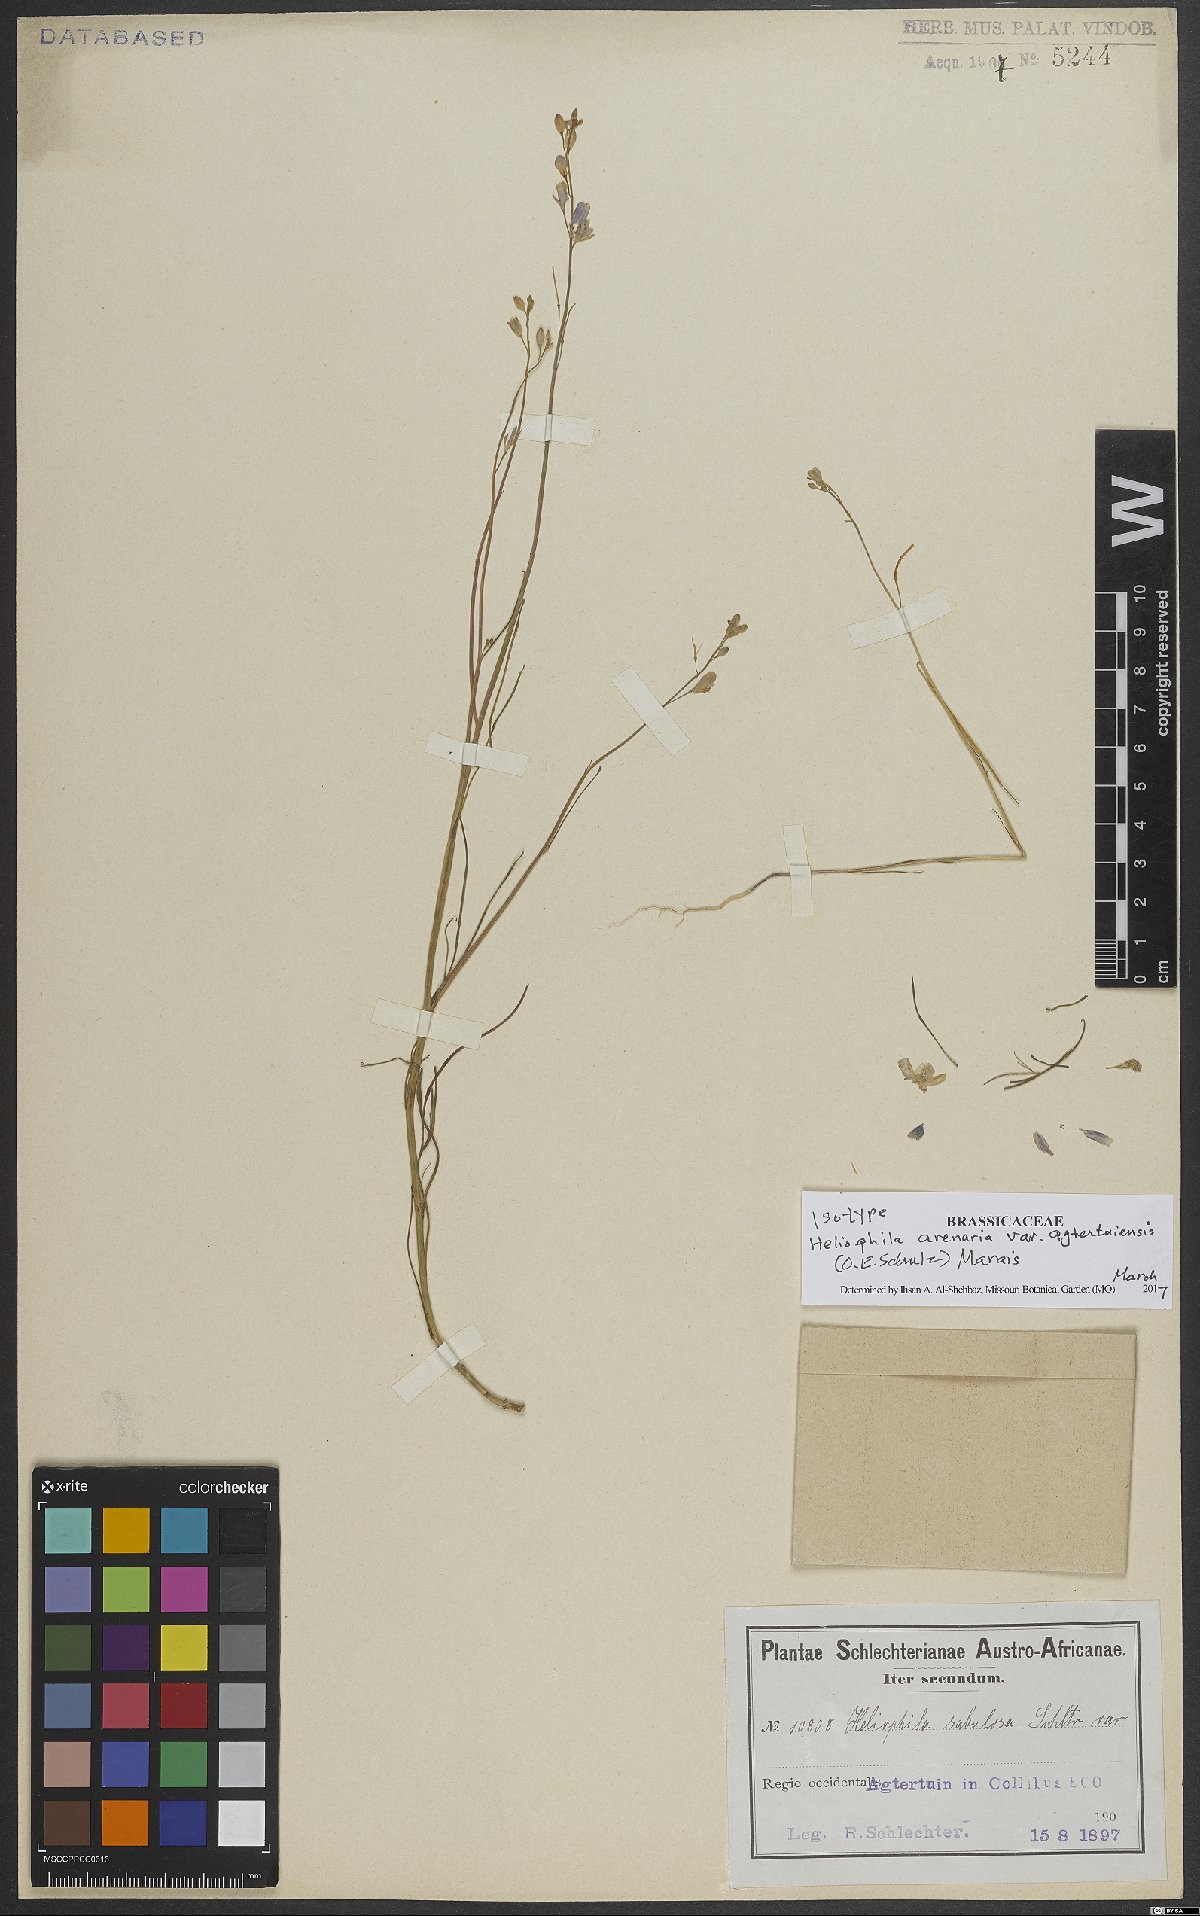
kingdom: Plantae
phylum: Tracheophyta
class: Magnoliopsida
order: Brassicales
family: Brassicaceae
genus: Heliophila
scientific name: Heliophila agtertuinensis
